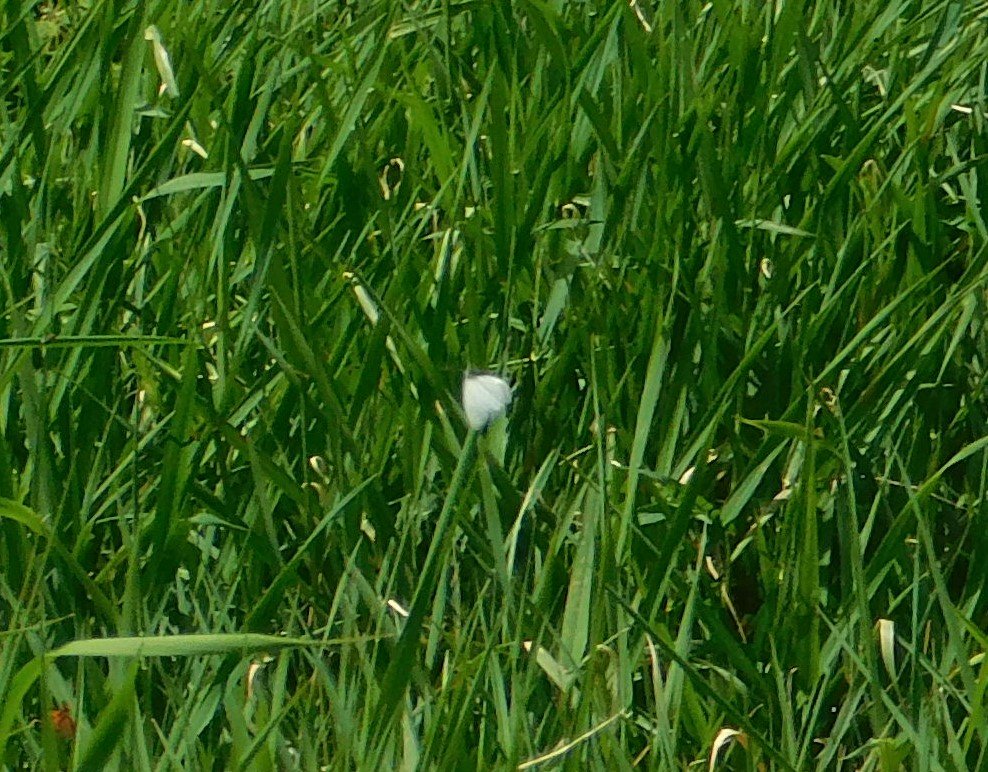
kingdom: Animalia
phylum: Arthropoda
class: Insecta
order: Lepidoptera
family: Pieridae
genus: Pieris
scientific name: Pieris rapae
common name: Cabbage White
